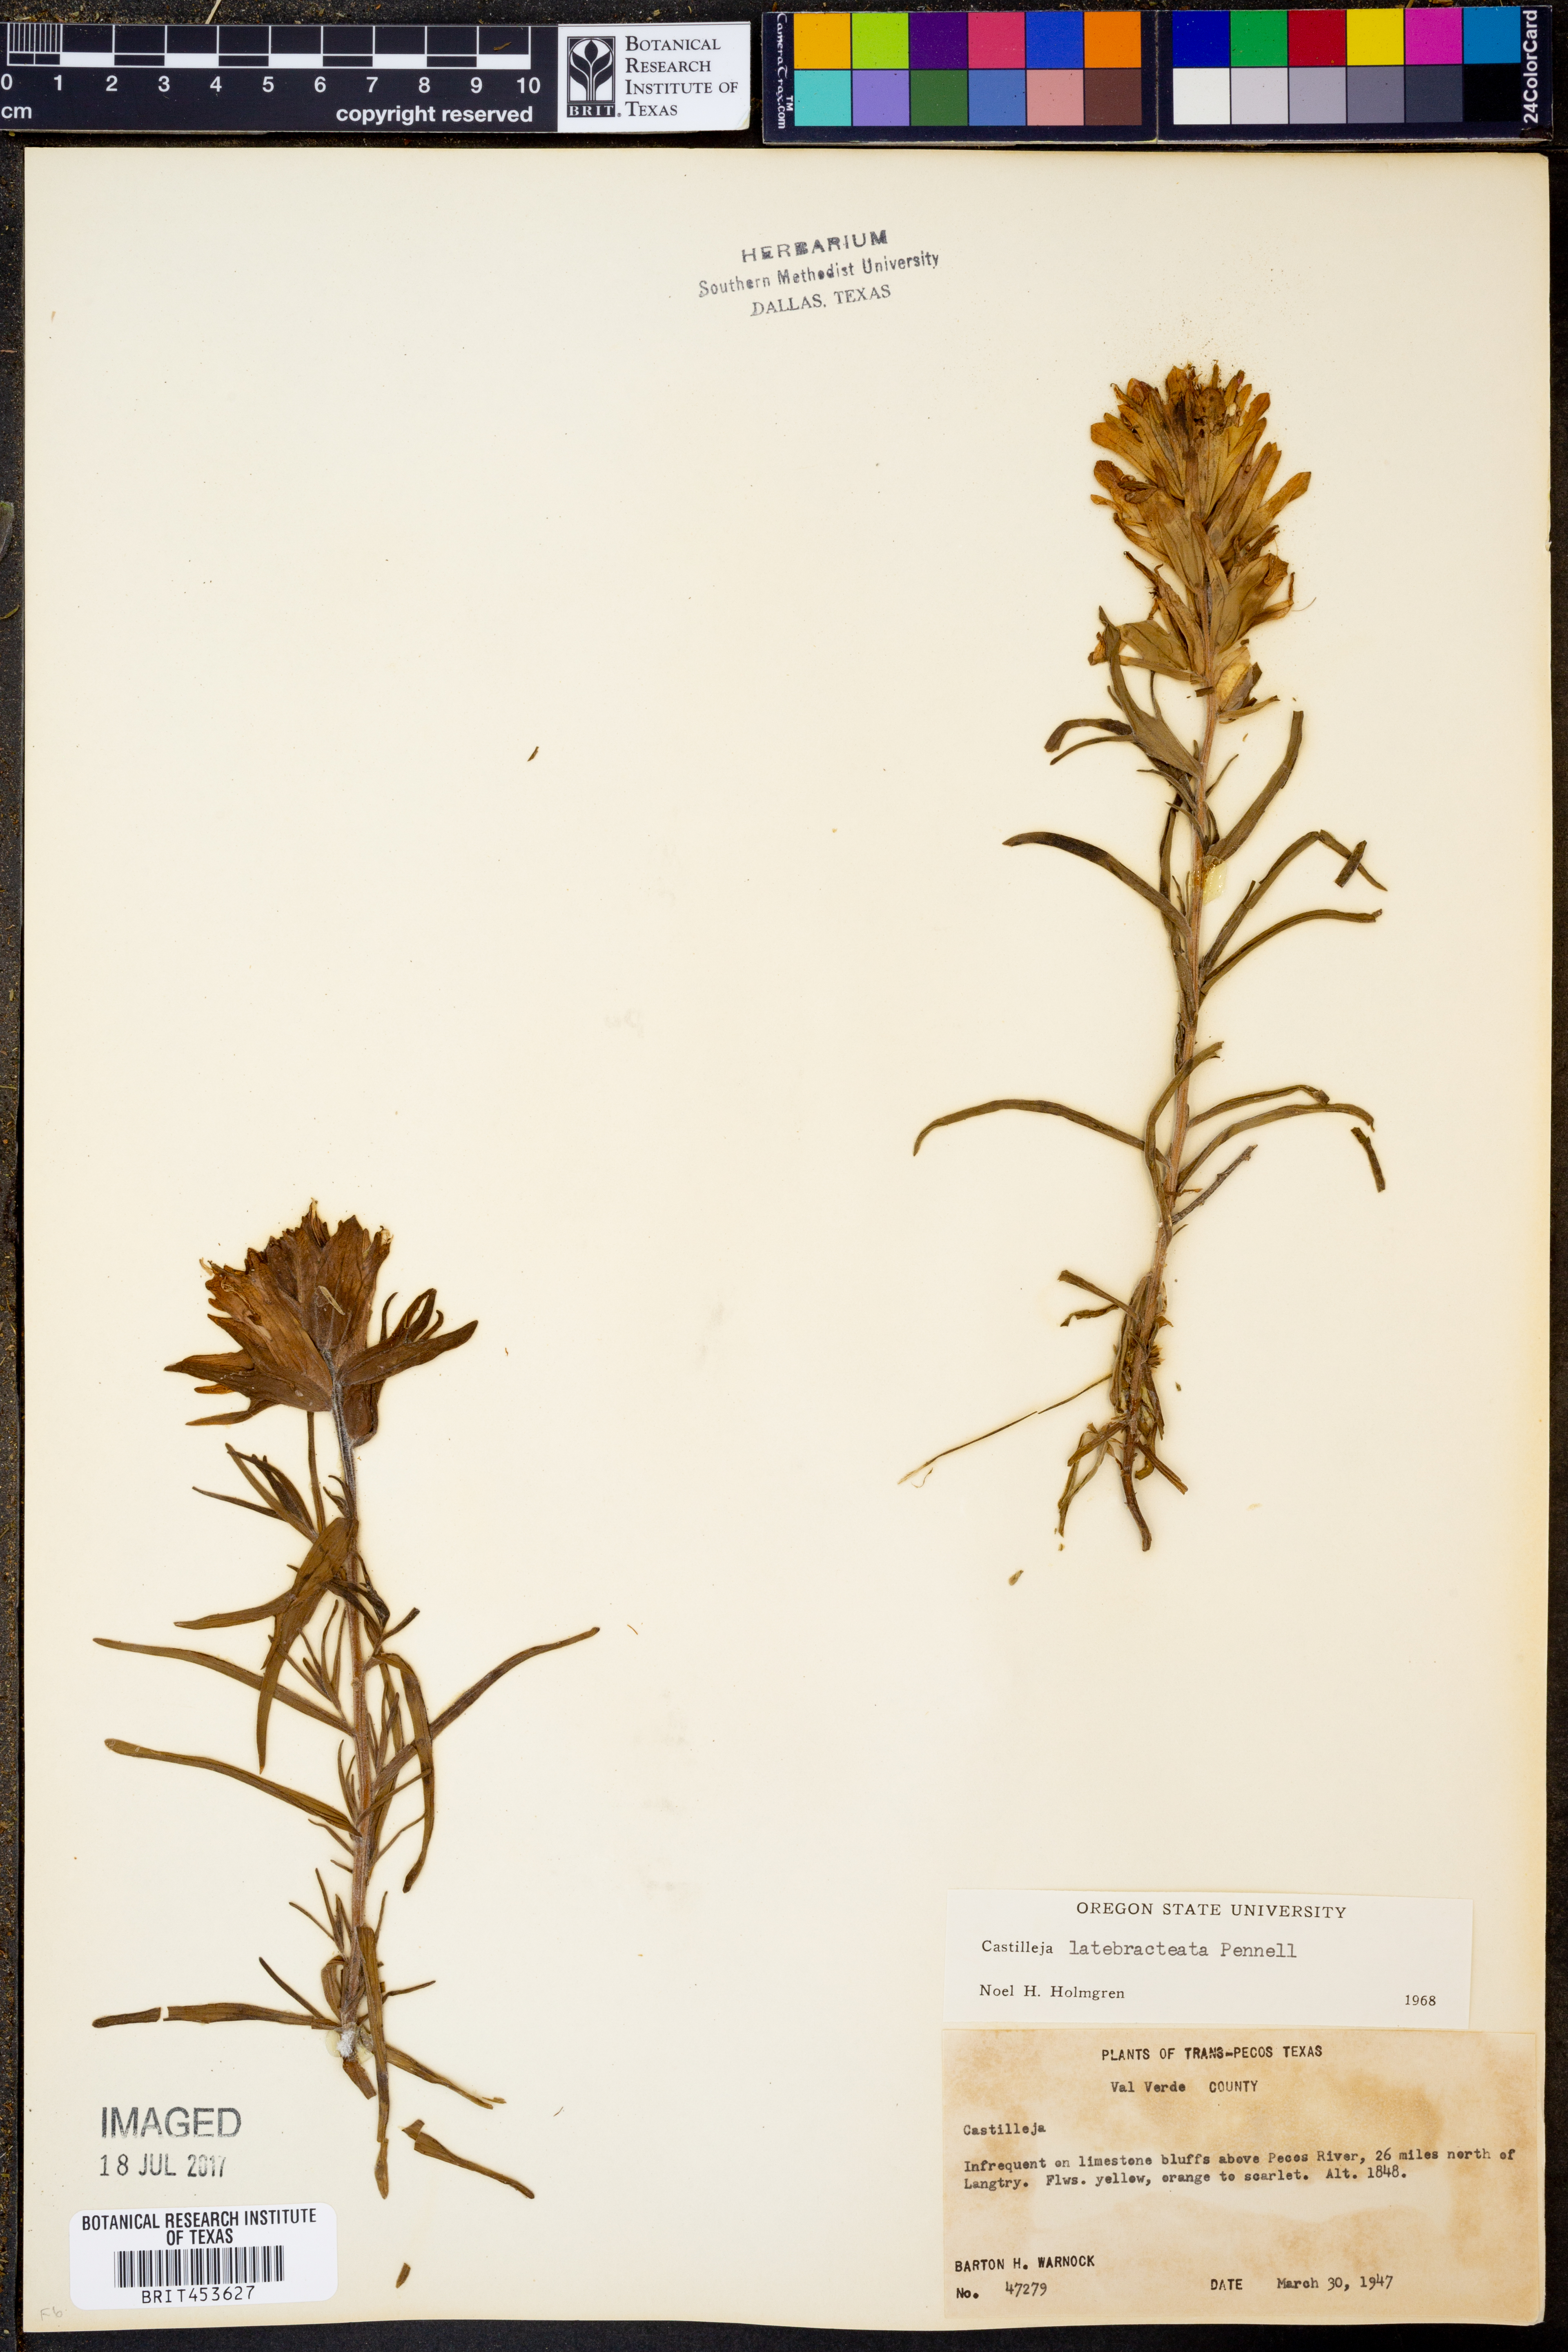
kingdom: Plantae
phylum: Tracheophyta
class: Magnoliopsida
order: Lamiales
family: Orobanchaceae
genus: Castilleja
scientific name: Castilleja rigida
